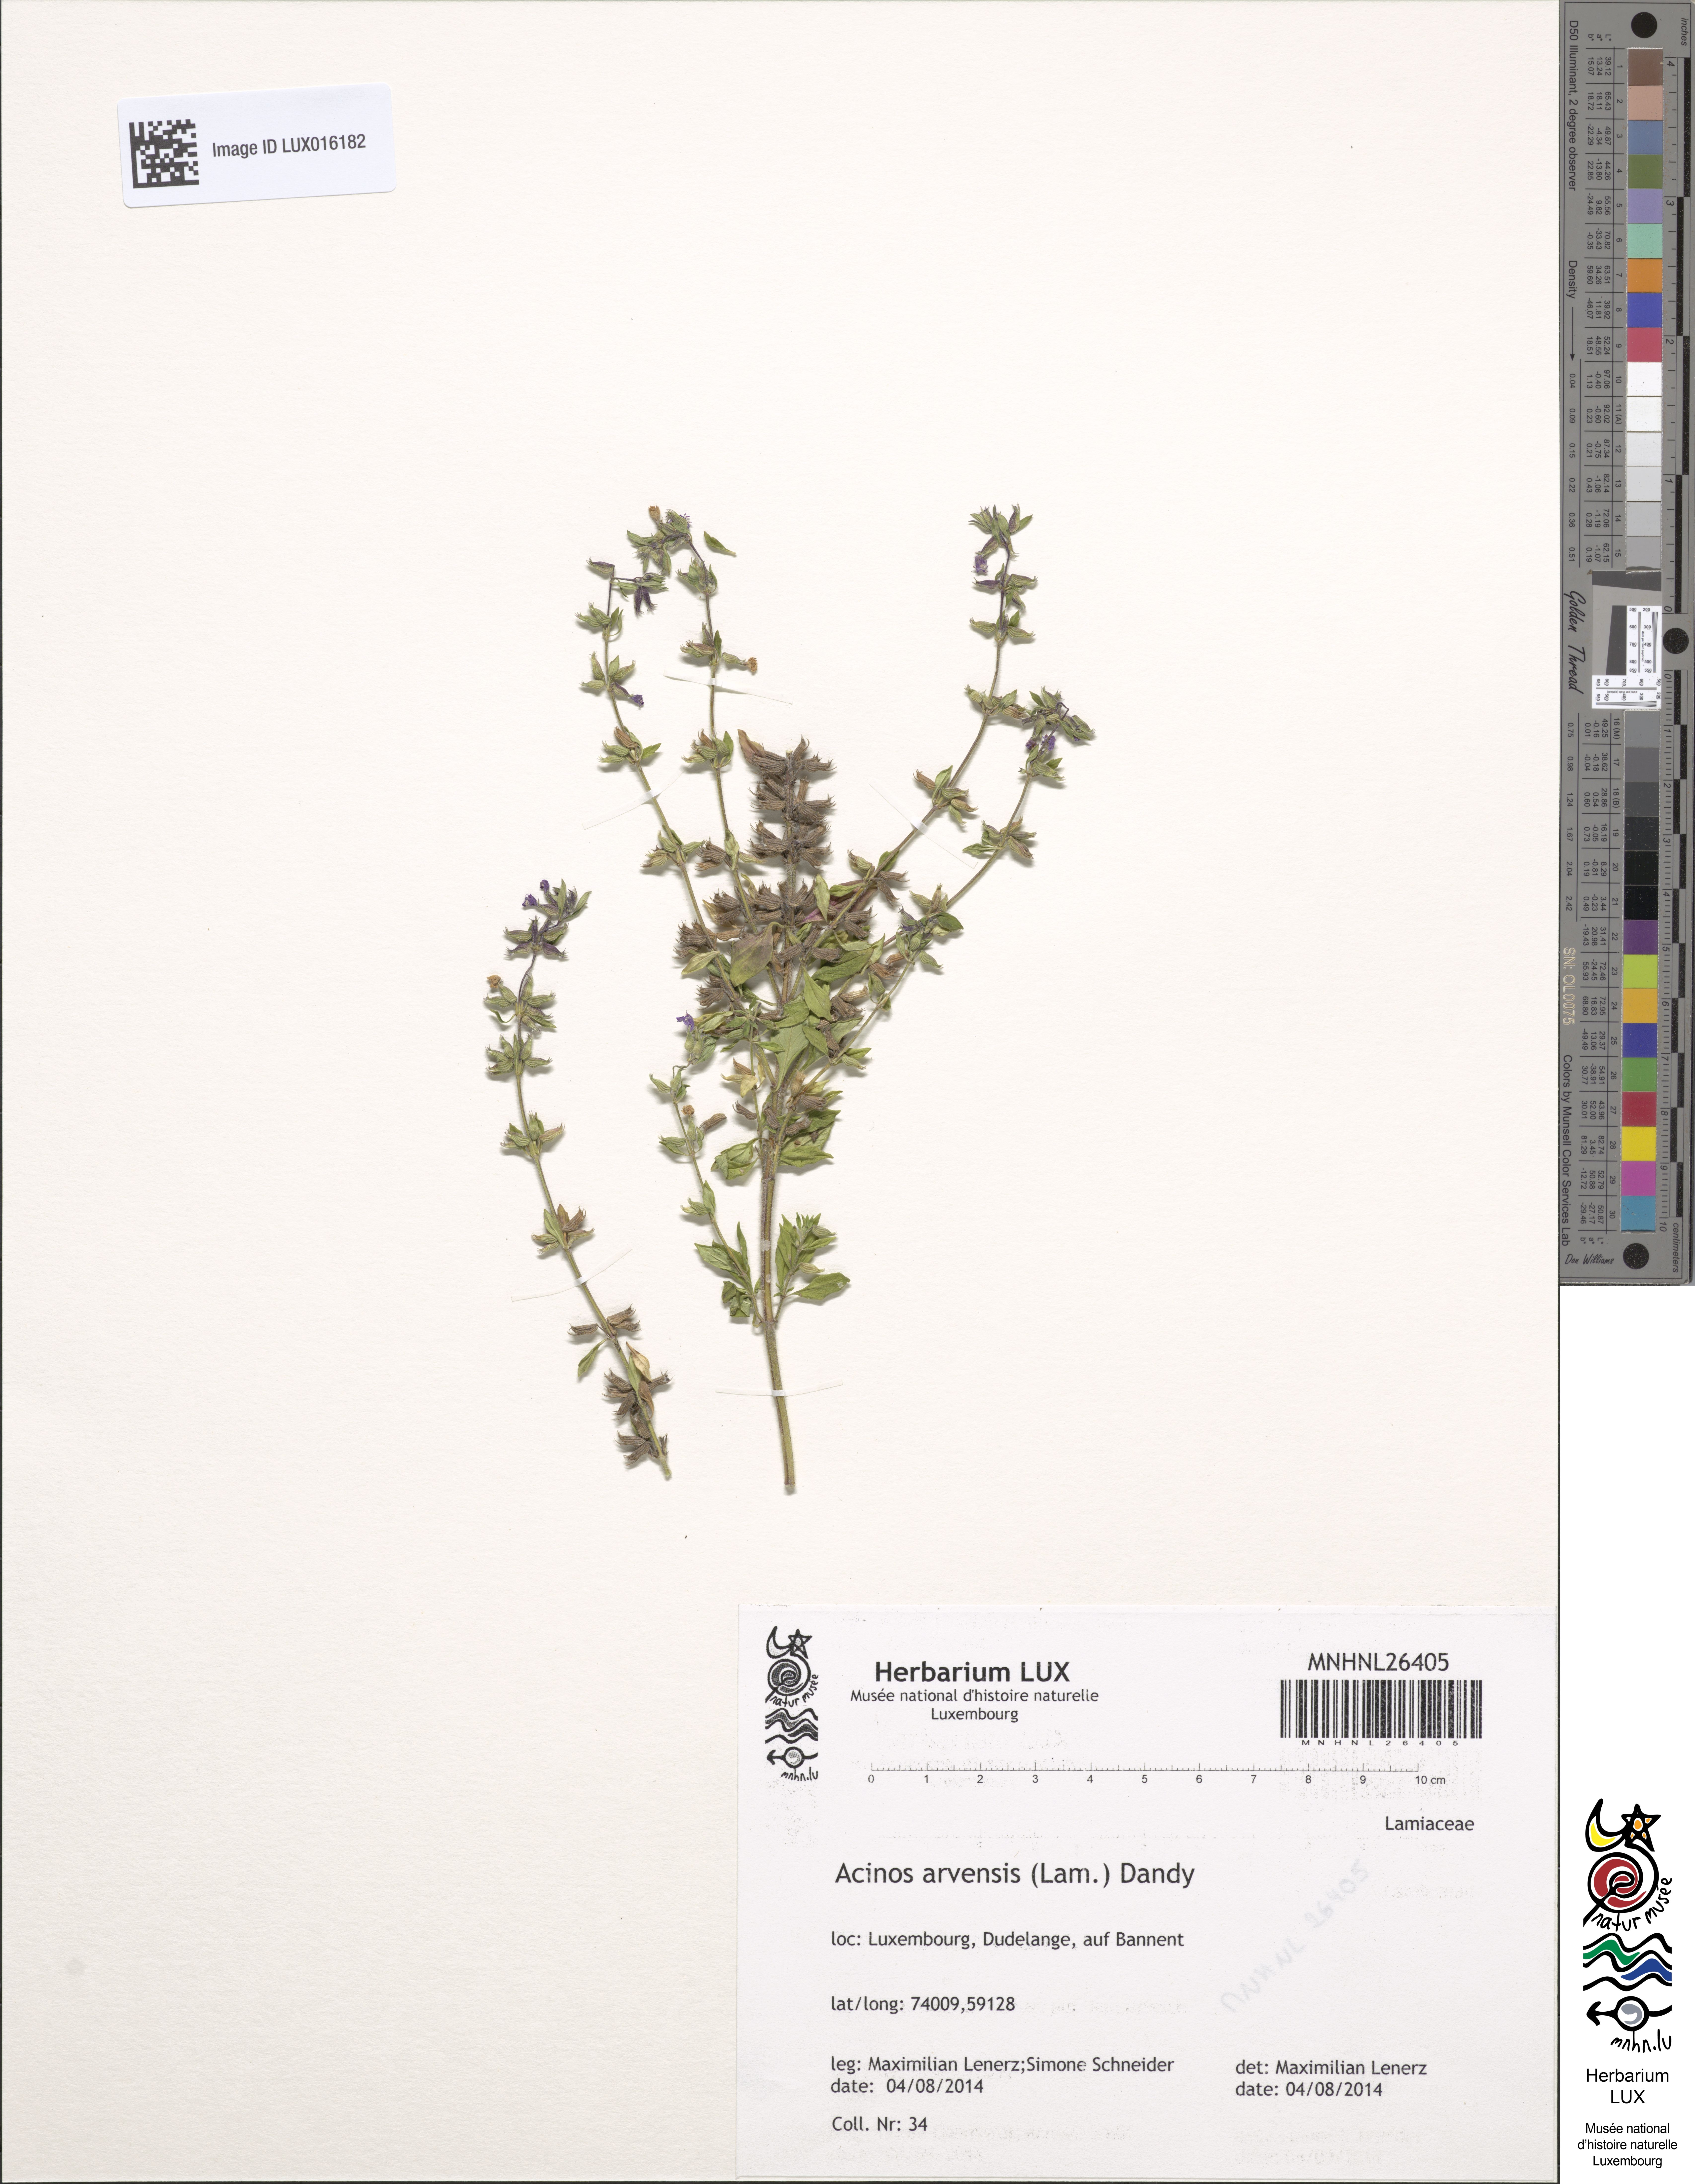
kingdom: Plantae
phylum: Tracheophyta
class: Magnoliopsida
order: Lamiales
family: Lamiaceae
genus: Clinopodium
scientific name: Clinopodium acinos
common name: Basil thyme
